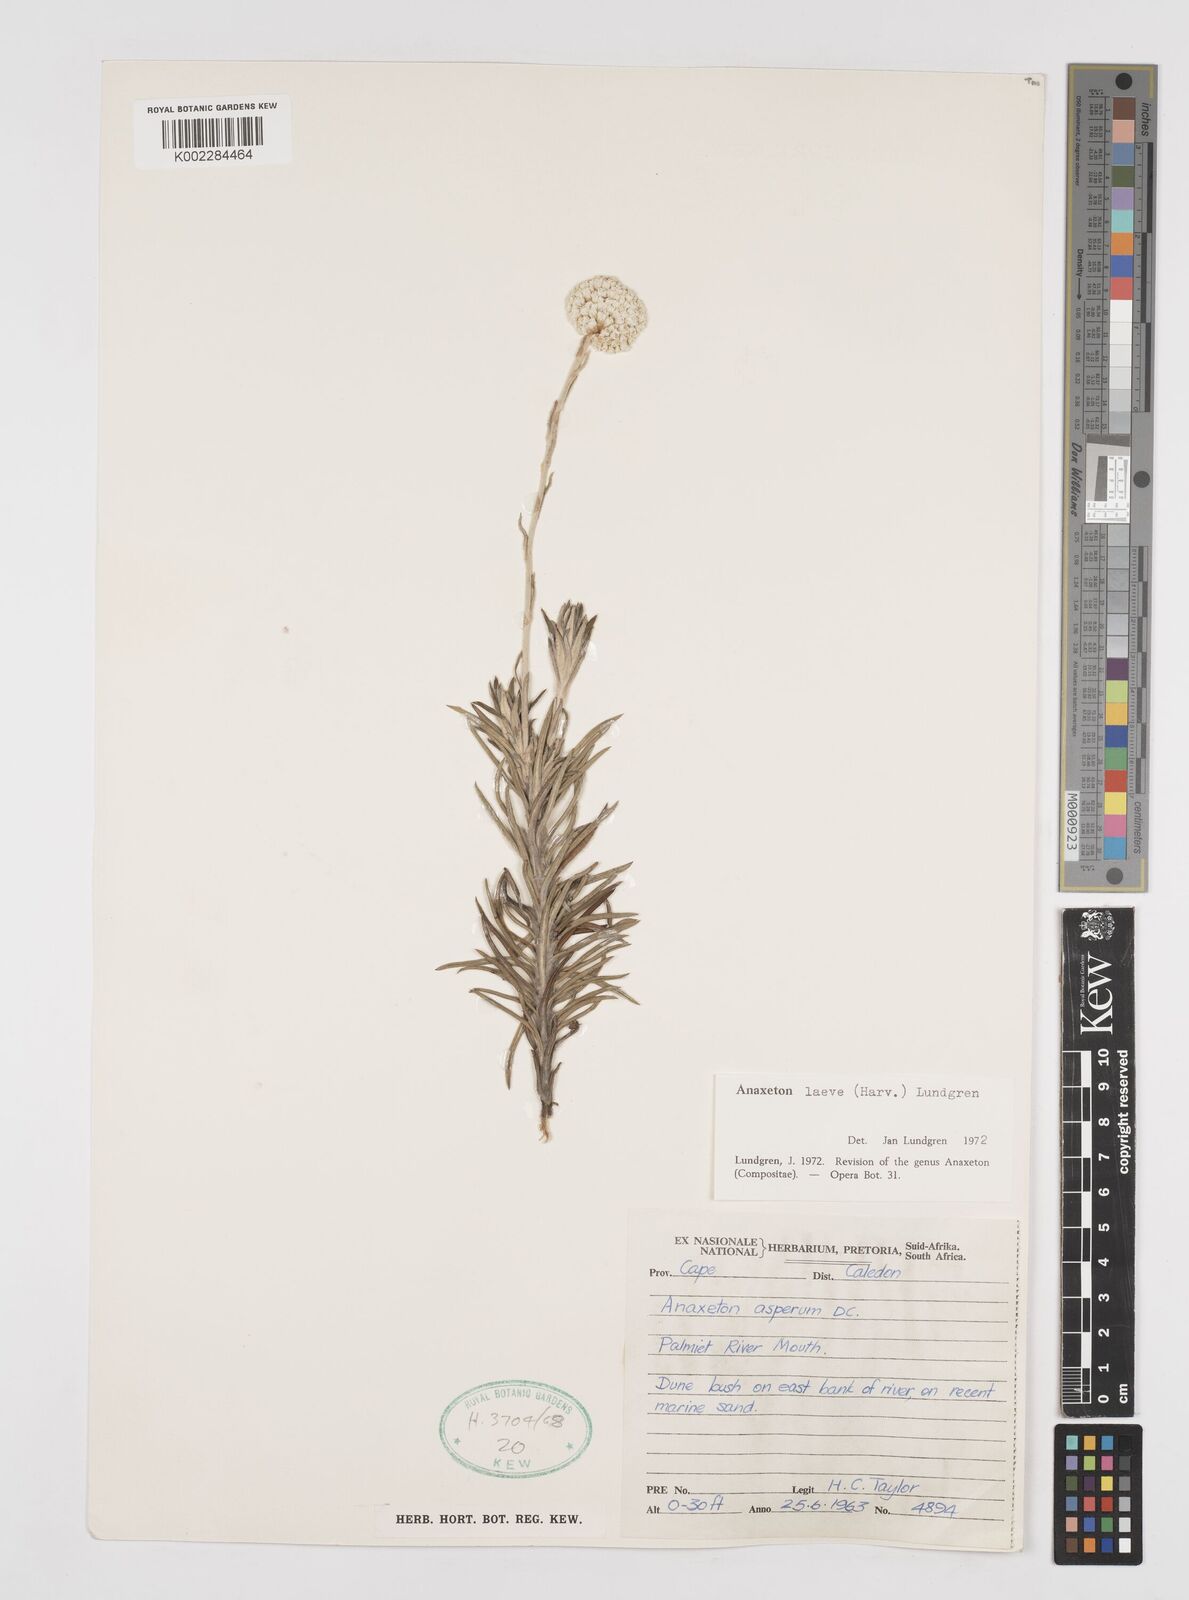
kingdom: Plantae
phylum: Tracheophyta
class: Magnoliopsida
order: Asterales
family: Asteraceae
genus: Anaxeton
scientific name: Anaxeton laeve
